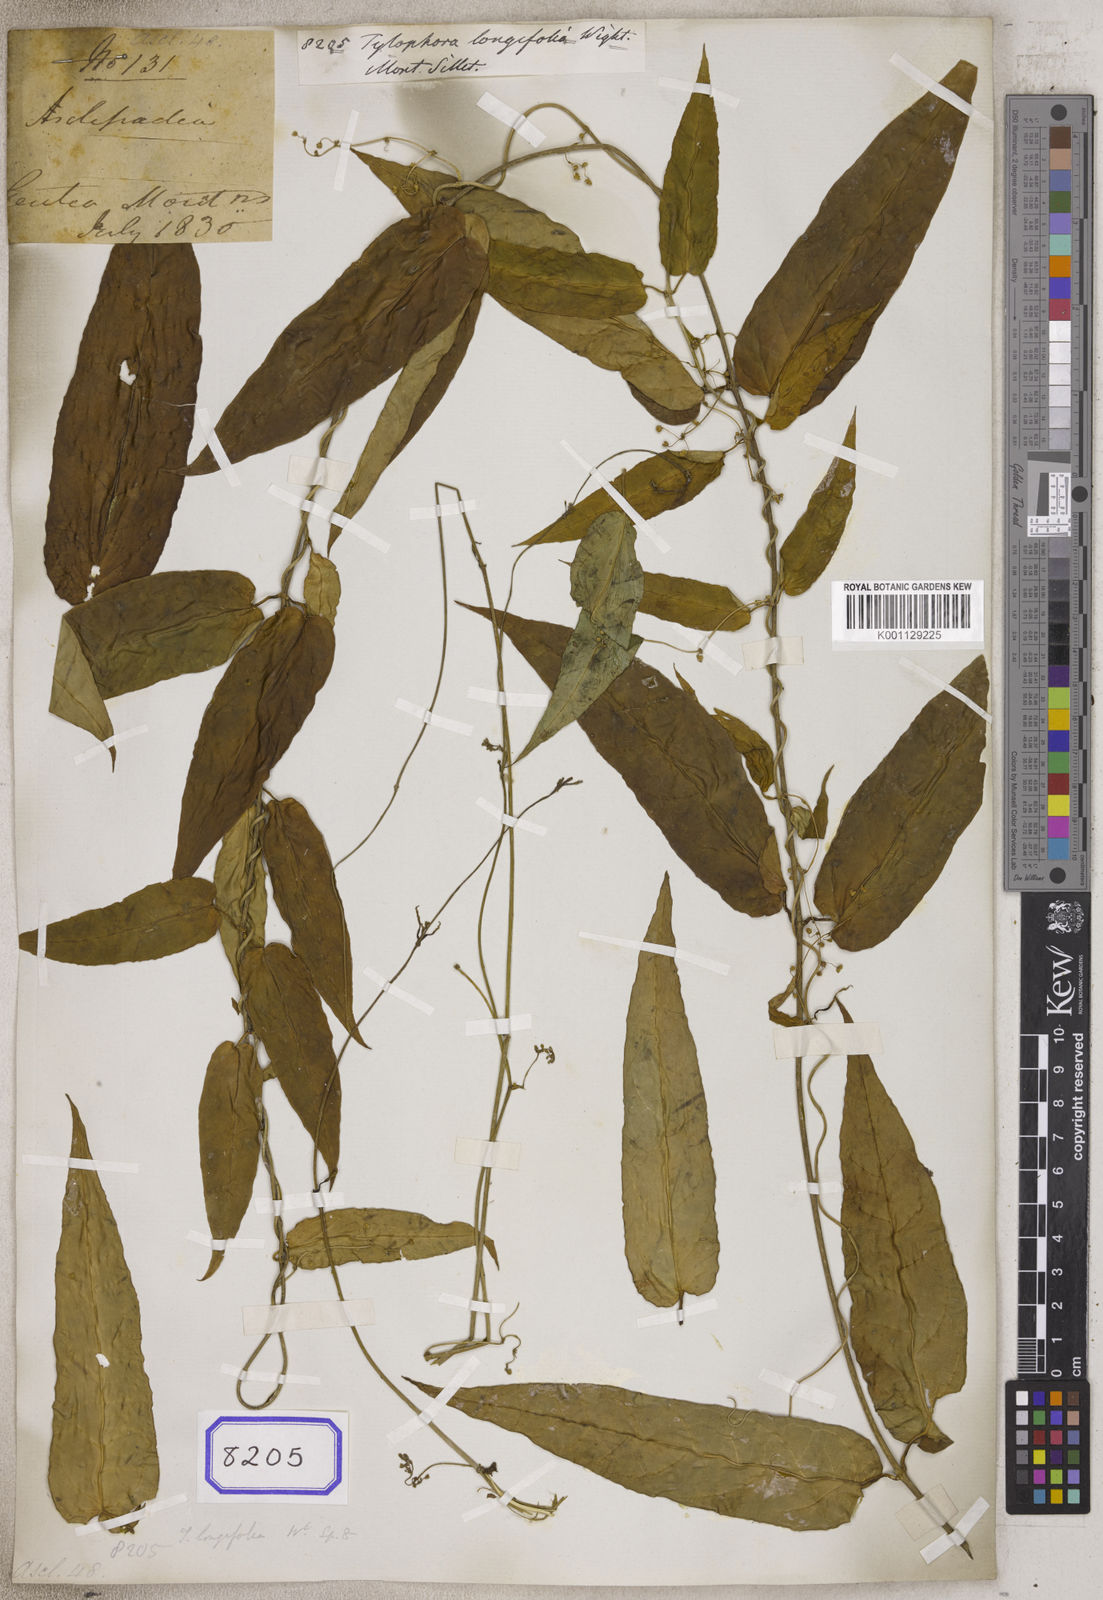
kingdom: Plantae
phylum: Tracheophyta
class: Magnoliopsida
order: Gentianales
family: Apocynaceae
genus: Vincetoxicum
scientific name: Vincetoxicum longifolium
